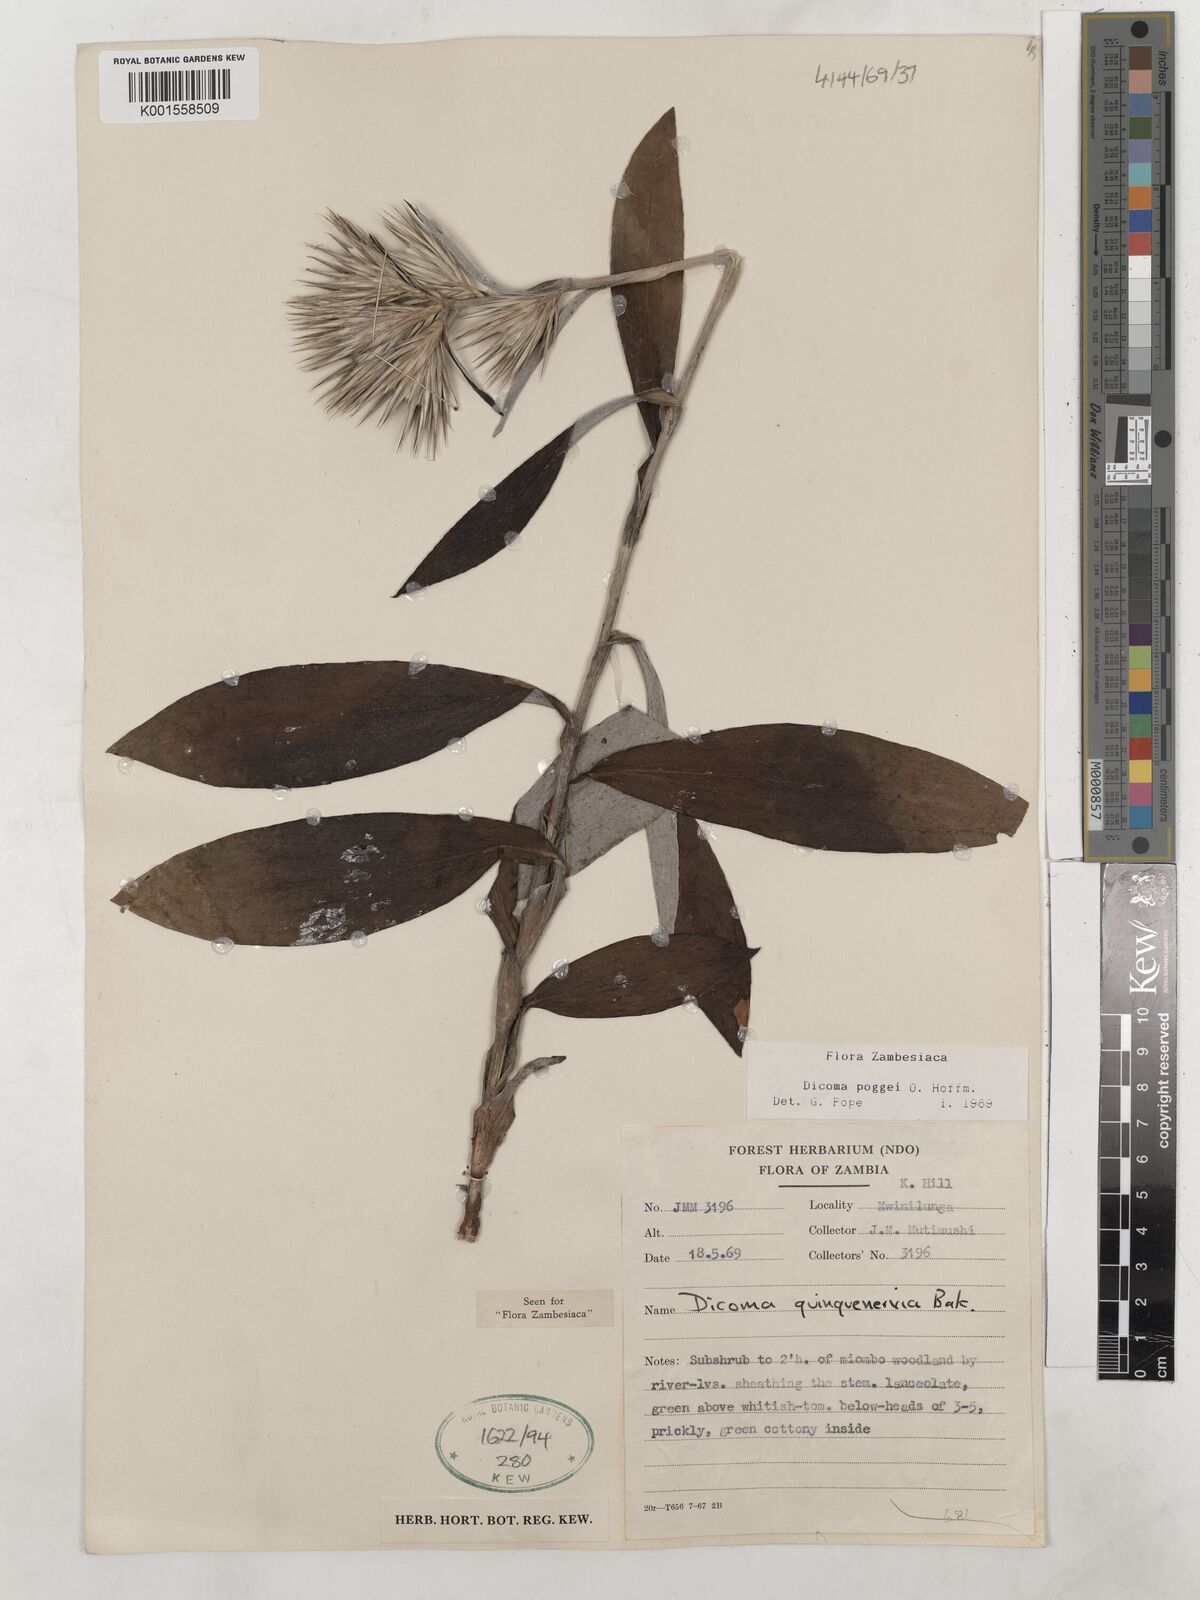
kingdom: Plantae
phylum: Tracheophyta
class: Magnoliopsida
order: Asterales
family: Asteraceae
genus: Macledium
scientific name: Macledium poggei
